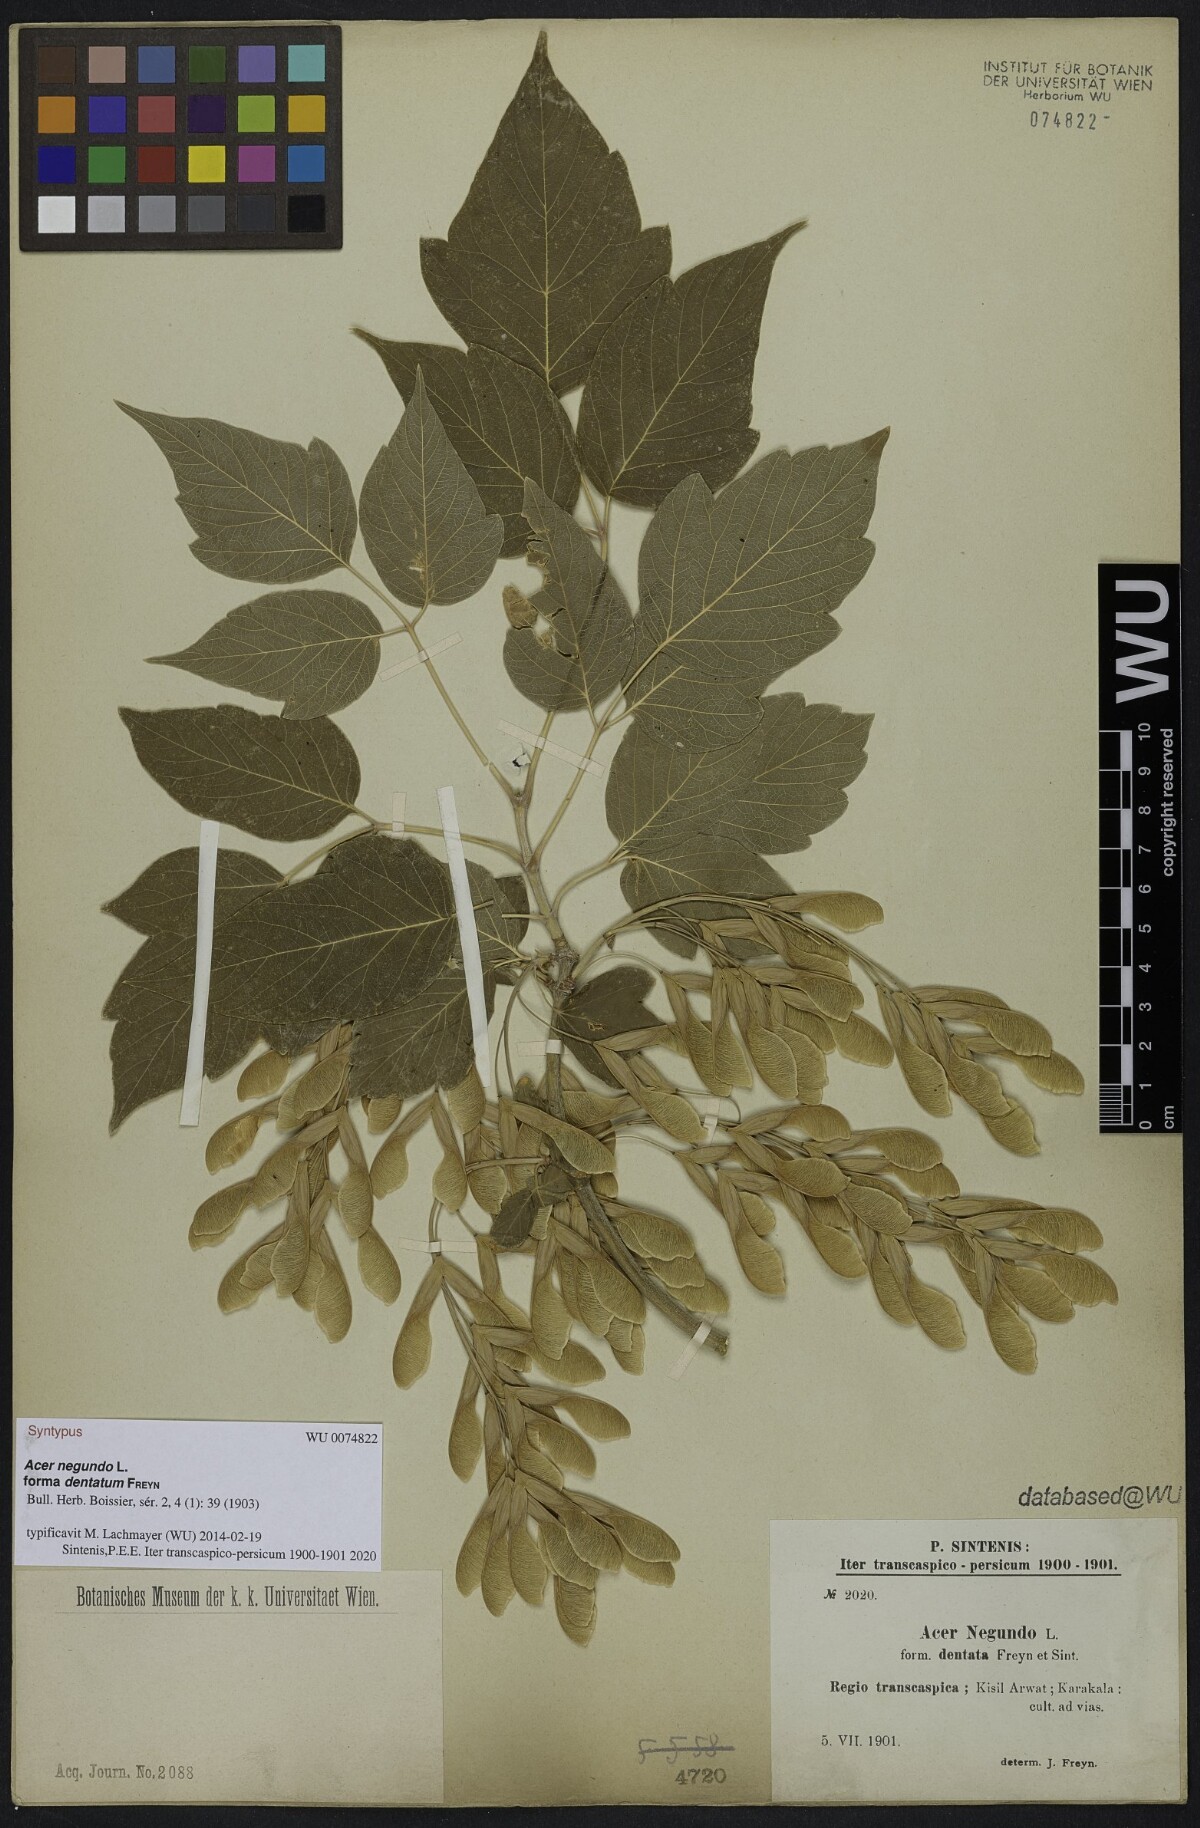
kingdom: Plantae
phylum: Tracheophyta
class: Magnoliopsida
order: Sapindales
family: Sapindaceae
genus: Acer
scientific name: Acer negundo
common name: Ashleaf maple
